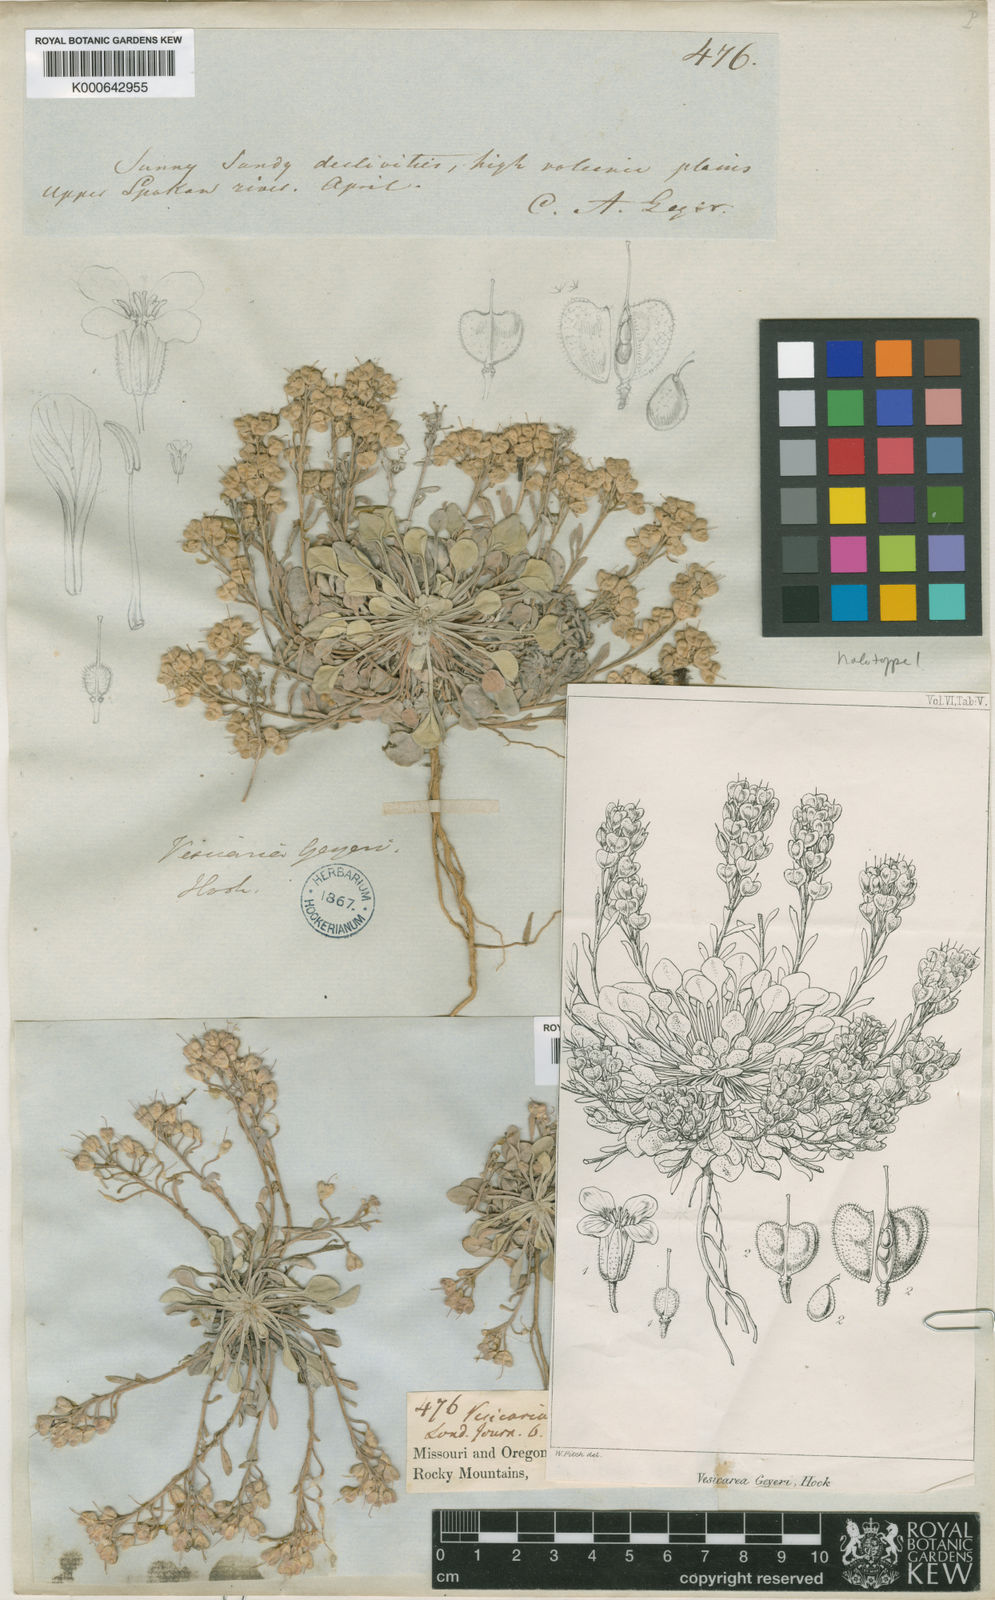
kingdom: Plantae
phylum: Tracheophyta
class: Magnoliopsida
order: Brassicales
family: Brassicaceae
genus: Physaria
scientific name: Physaria geyeri
